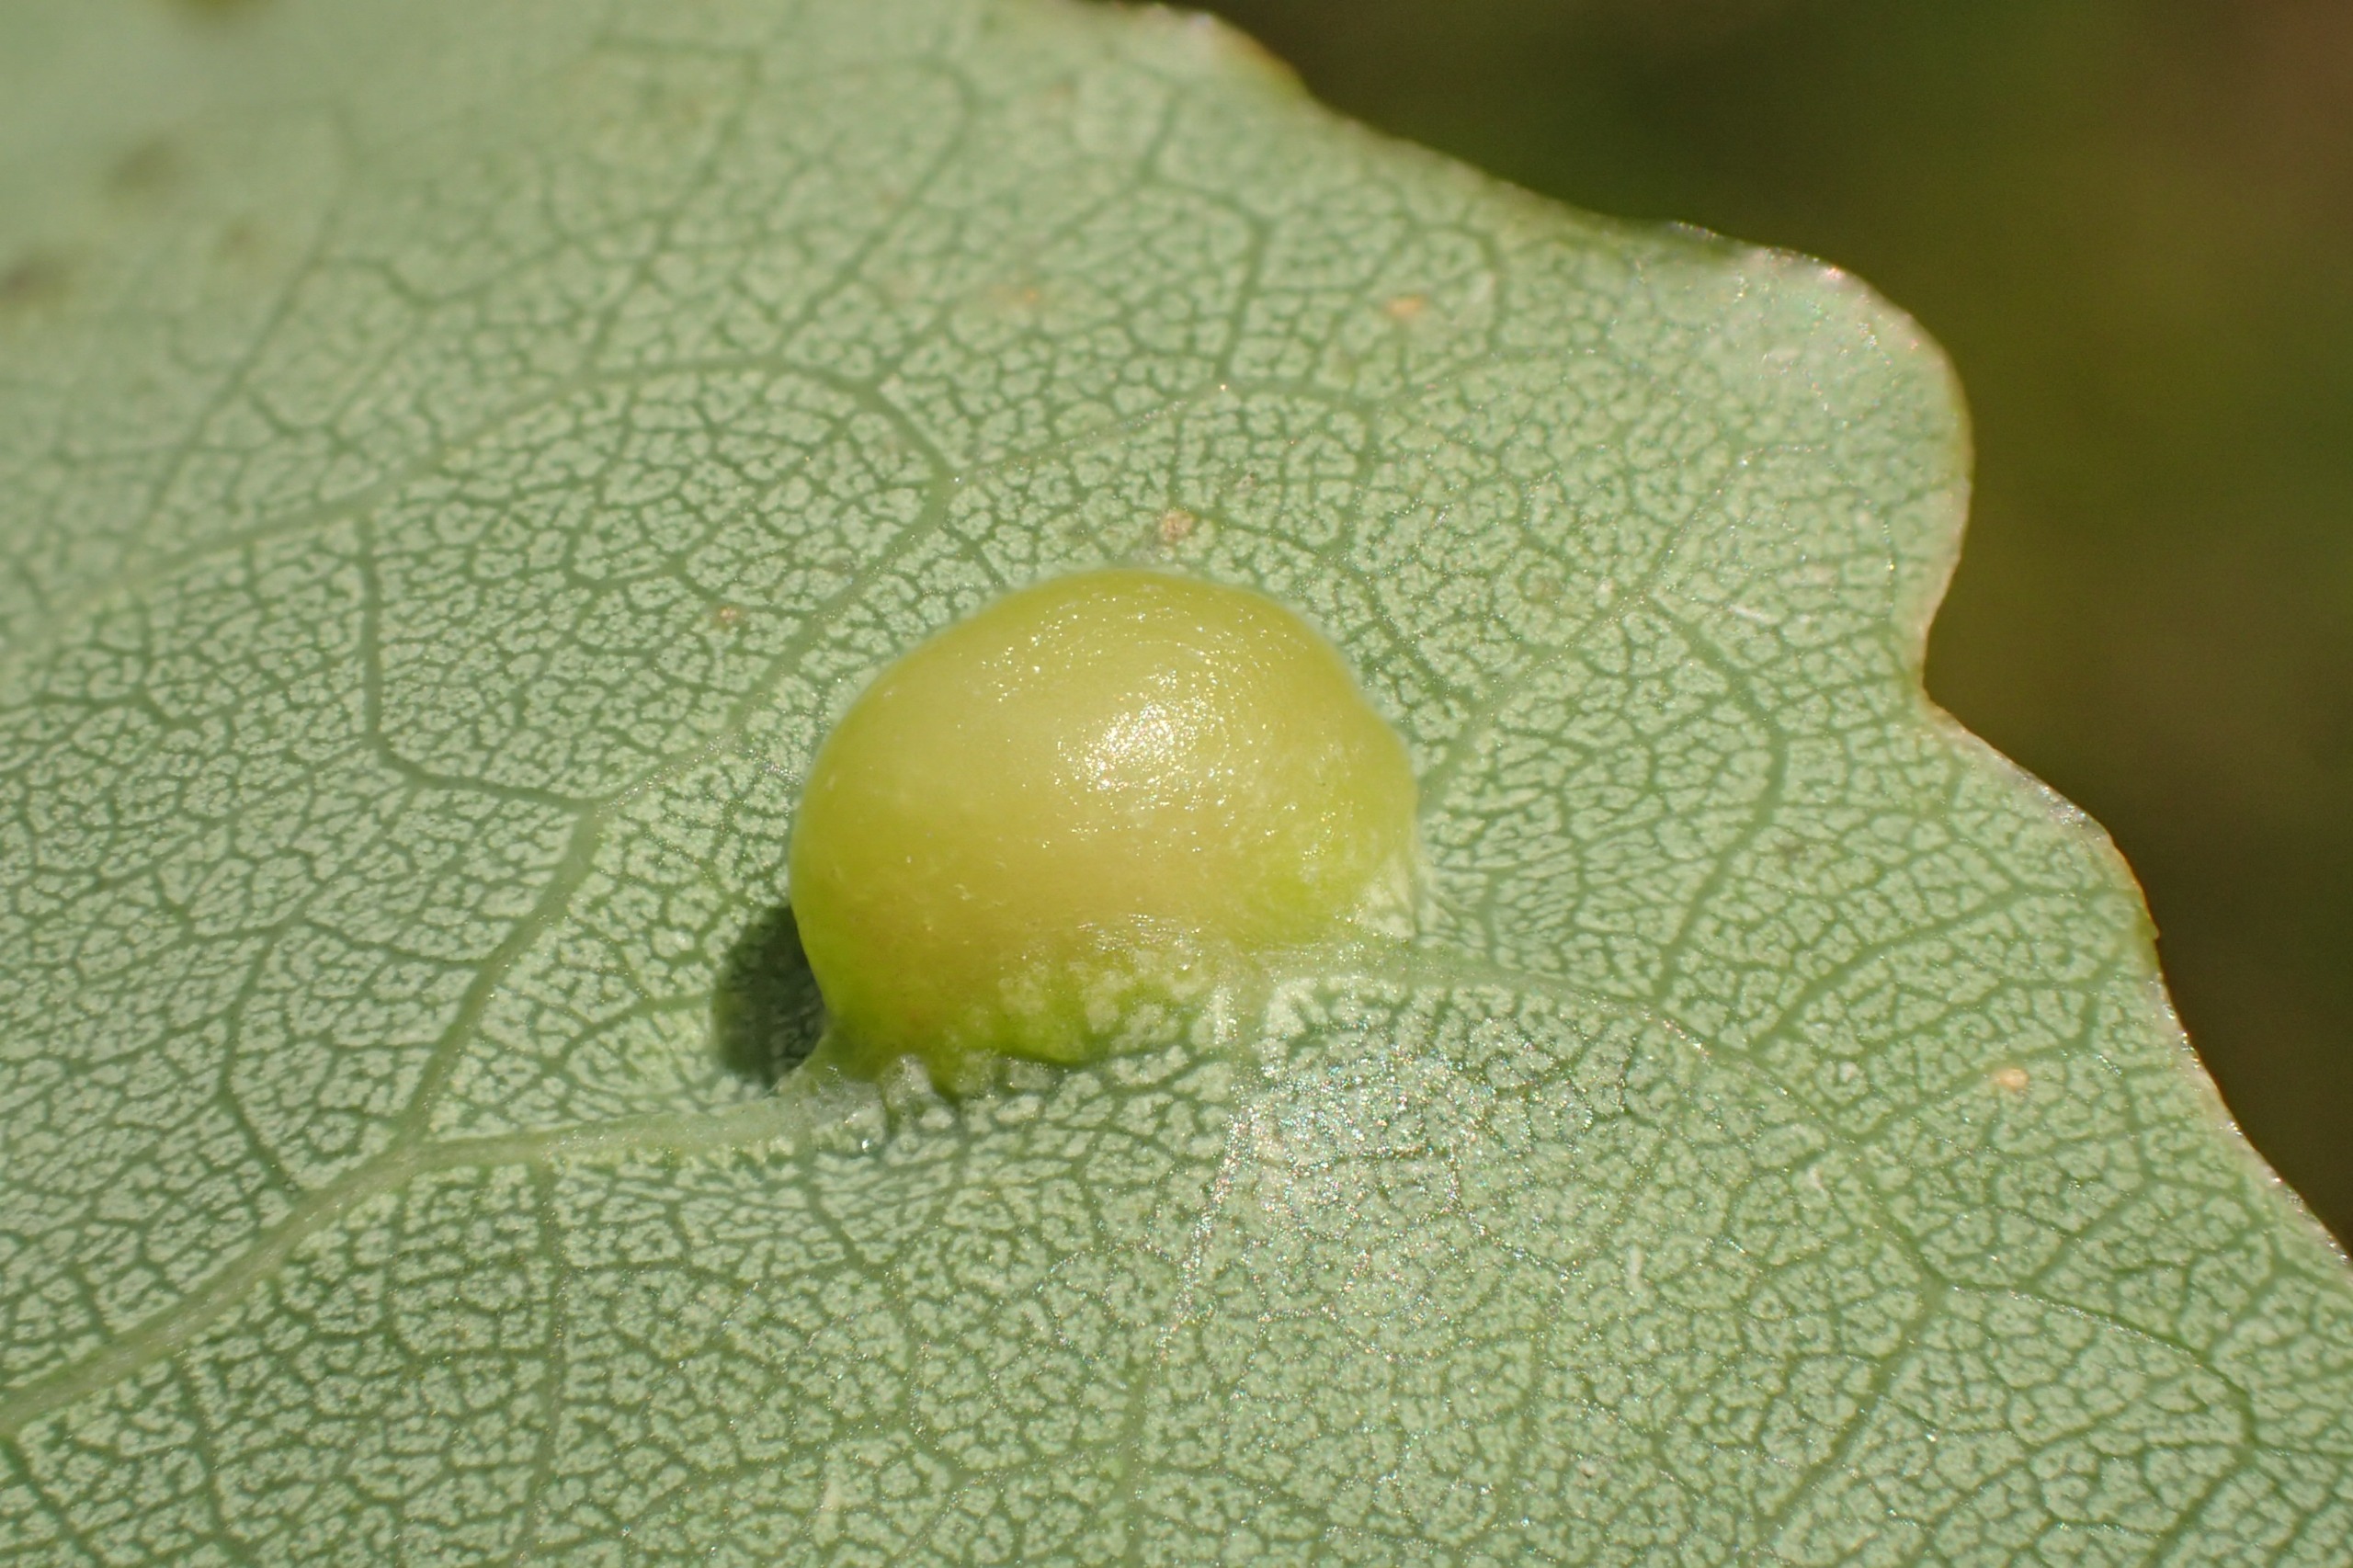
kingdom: Animalia
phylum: Arthropoda
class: Insecta
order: Diptera
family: Cecidomyiidae
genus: Harmandiola
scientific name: Harmandiola cavernosa
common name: Aspepunggalmyg
